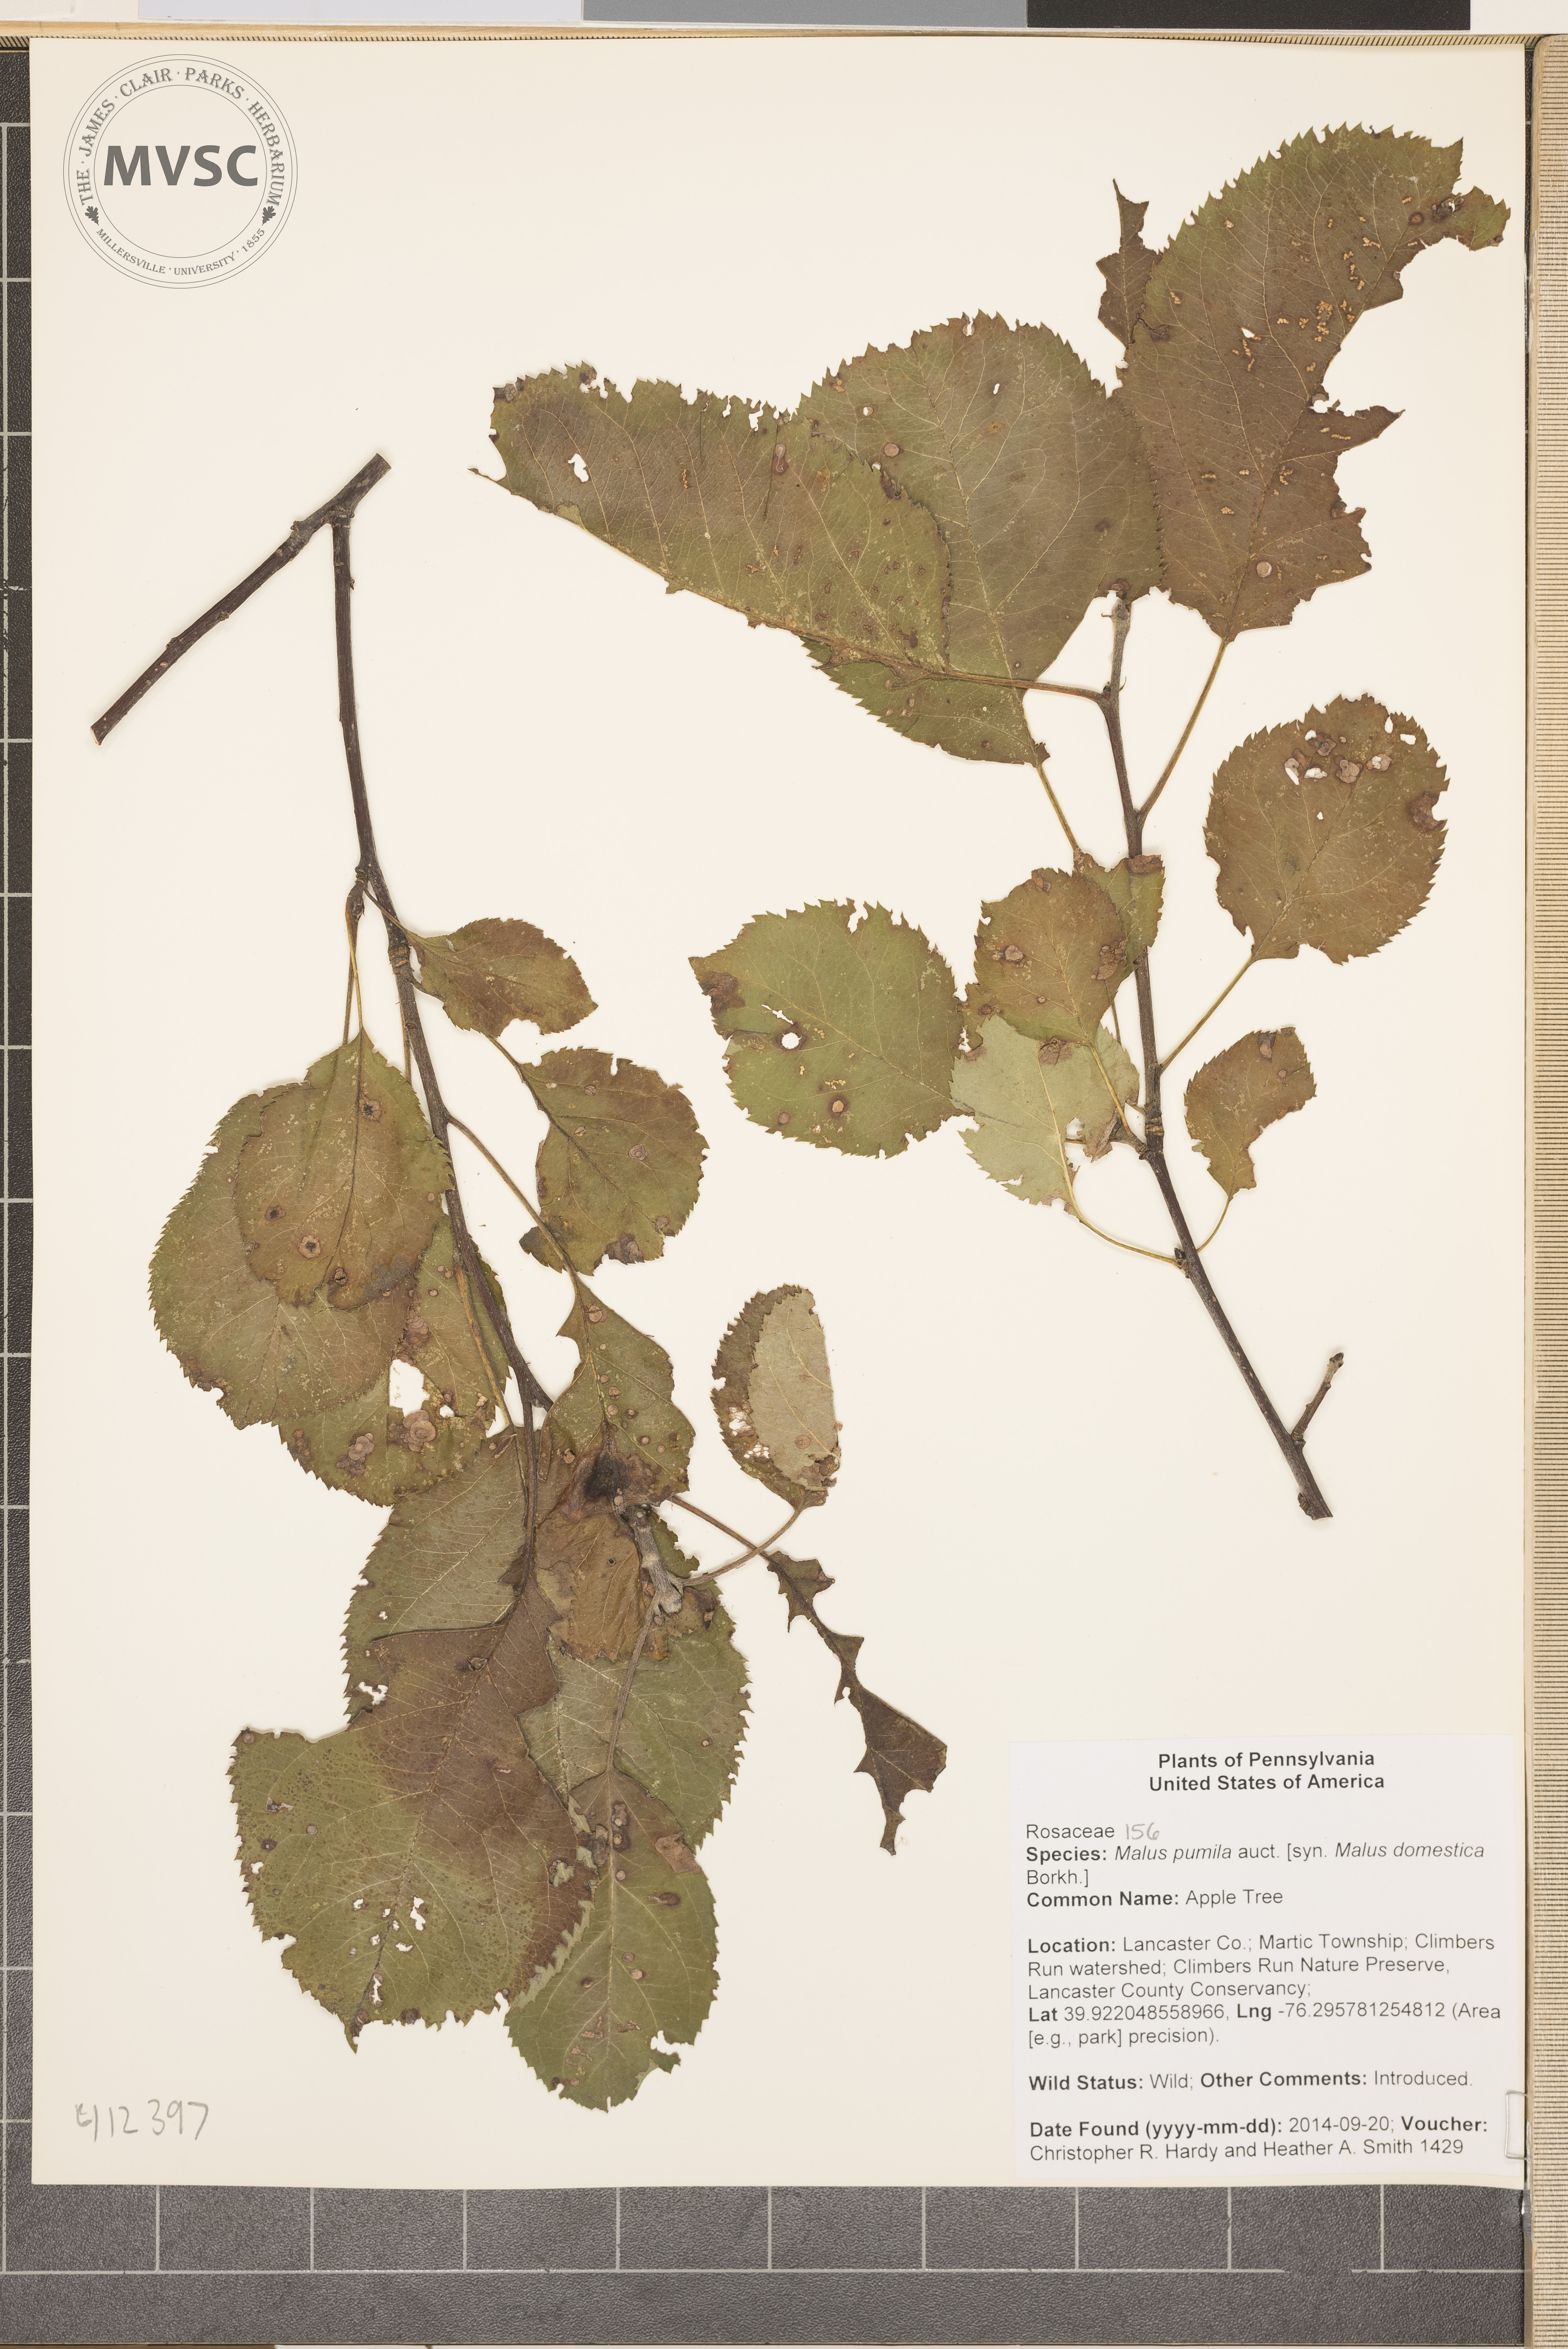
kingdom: Plantae
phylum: Tracheophyta
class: Magnoliopsida
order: Rosales
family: Rosaceae
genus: Malus
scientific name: Malus
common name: Apple Tree
